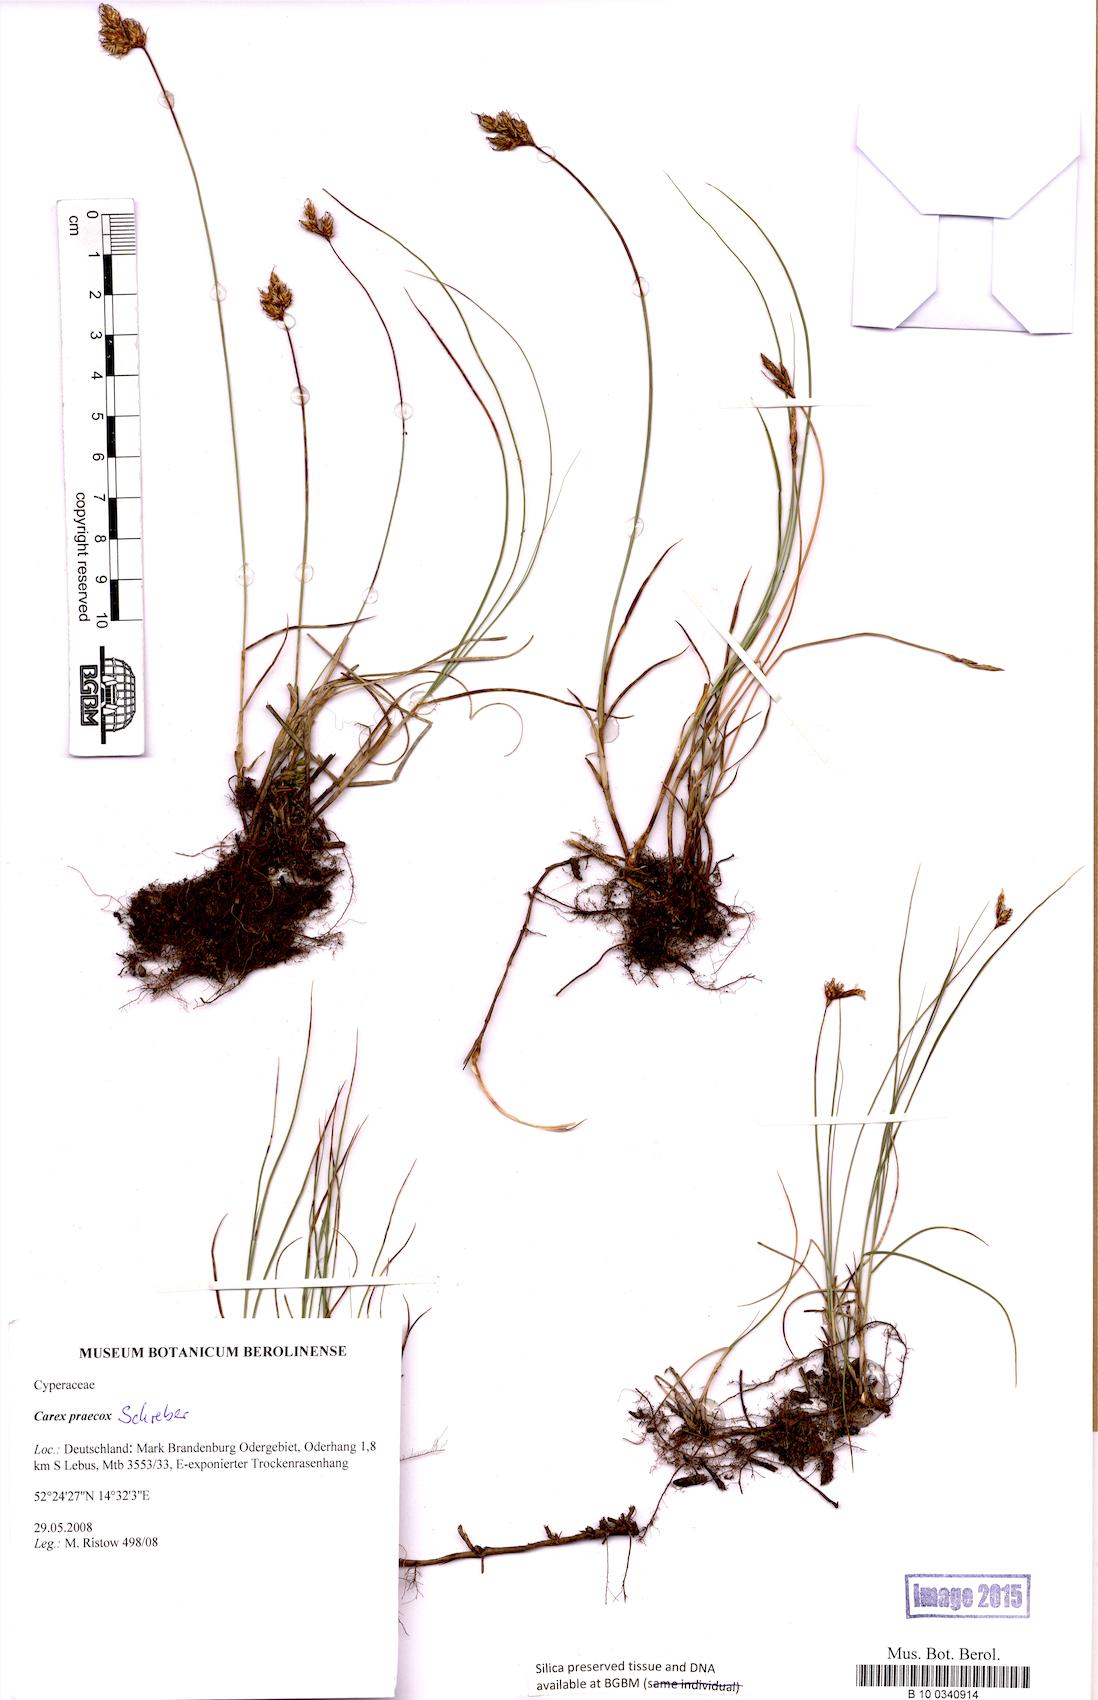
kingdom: Plantae
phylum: Tracheophyta
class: Liliopsida
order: Poales
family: Cyperaceae
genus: Carex
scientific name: Carex praecox
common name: Early sedge
